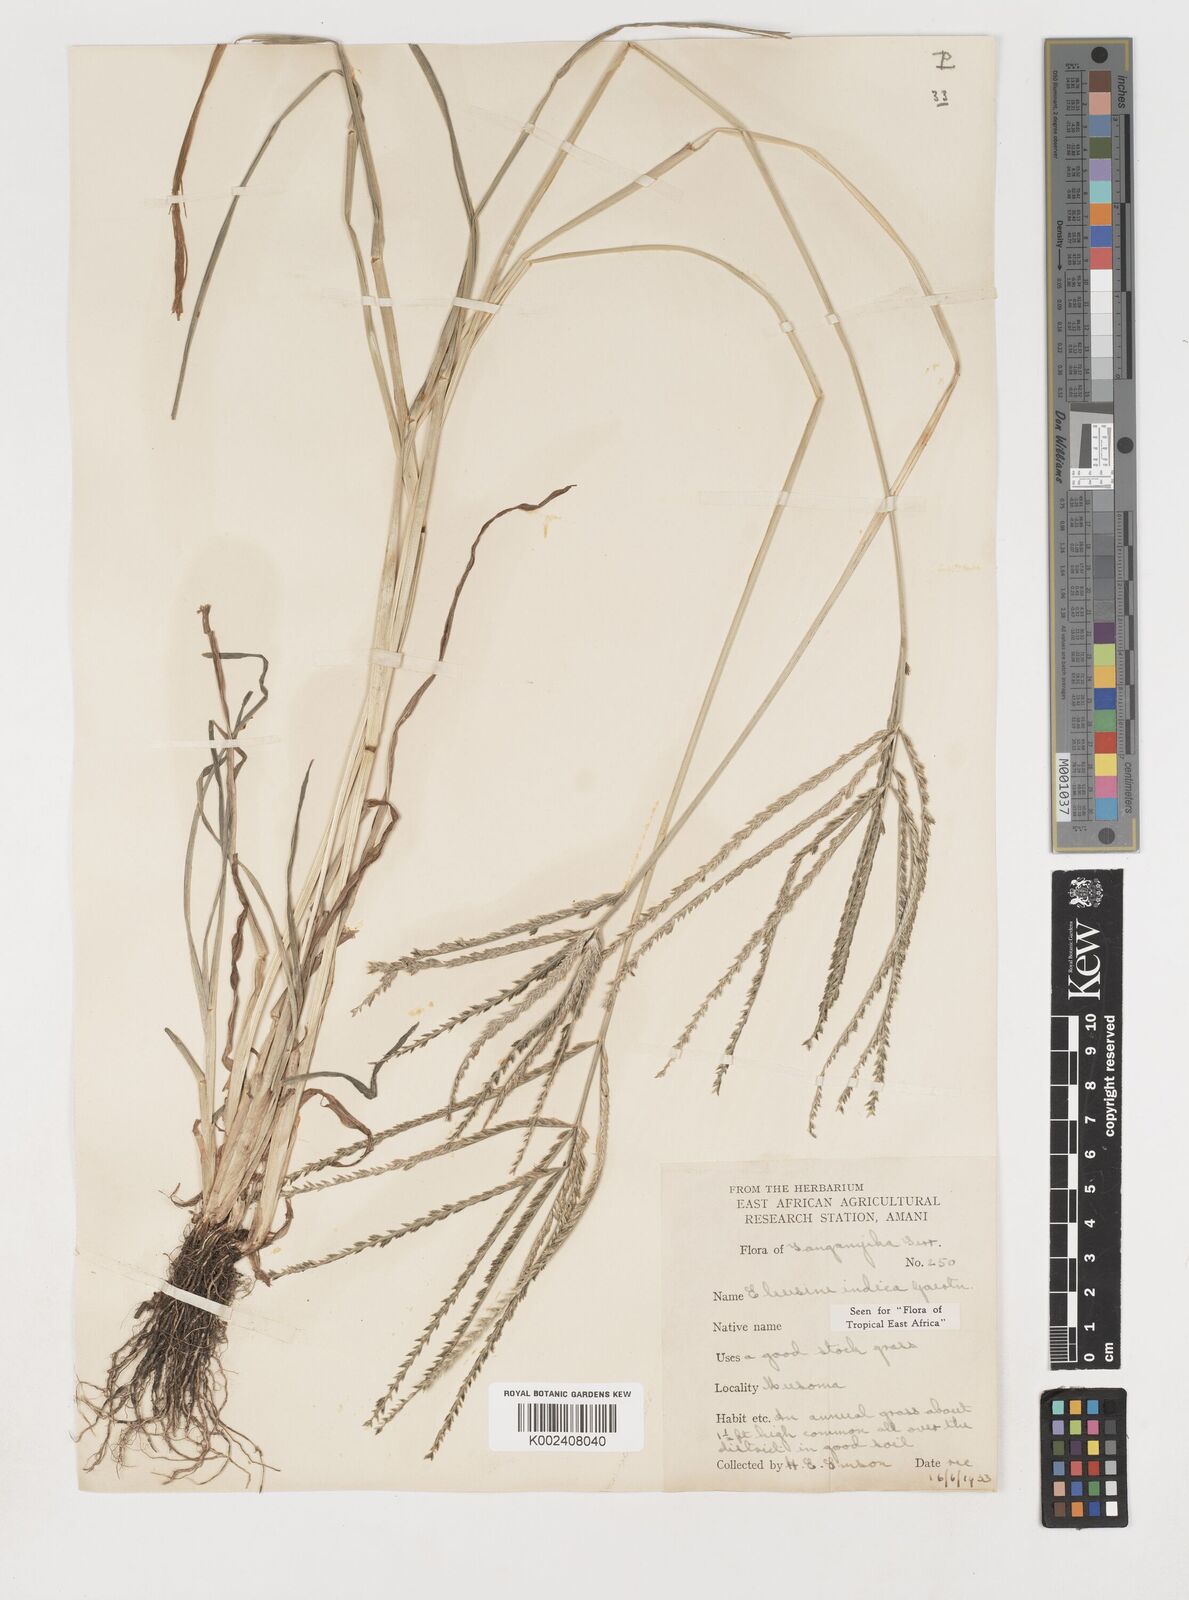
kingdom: Plantae
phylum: Tracheophyta
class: Liliopsida
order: Poales
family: Poaceae
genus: Eleusine
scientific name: Eleusine indica
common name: Yard-grass
